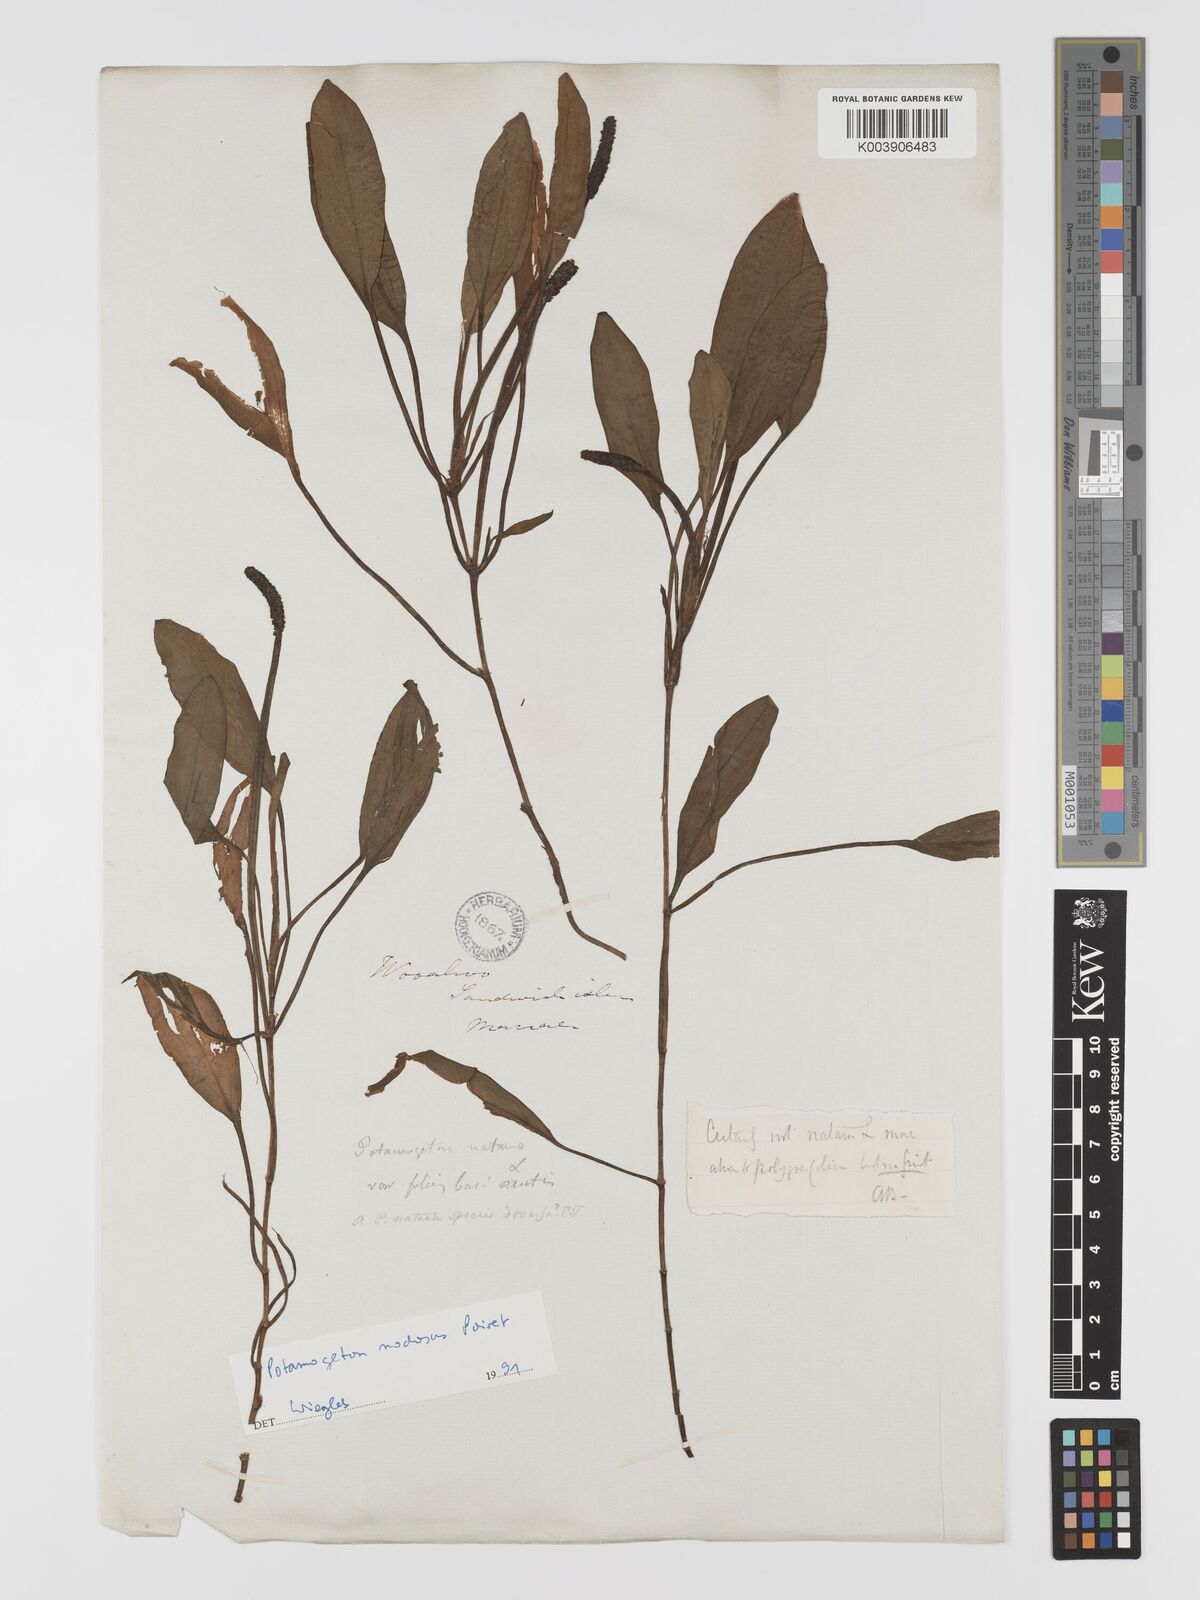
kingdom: Plantae
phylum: Tracheophyta
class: Liliopsida
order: Alismatales
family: Potamogetonaceae
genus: Potamogeton
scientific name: Potamogeton nodosus
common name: Loddon pondweed
